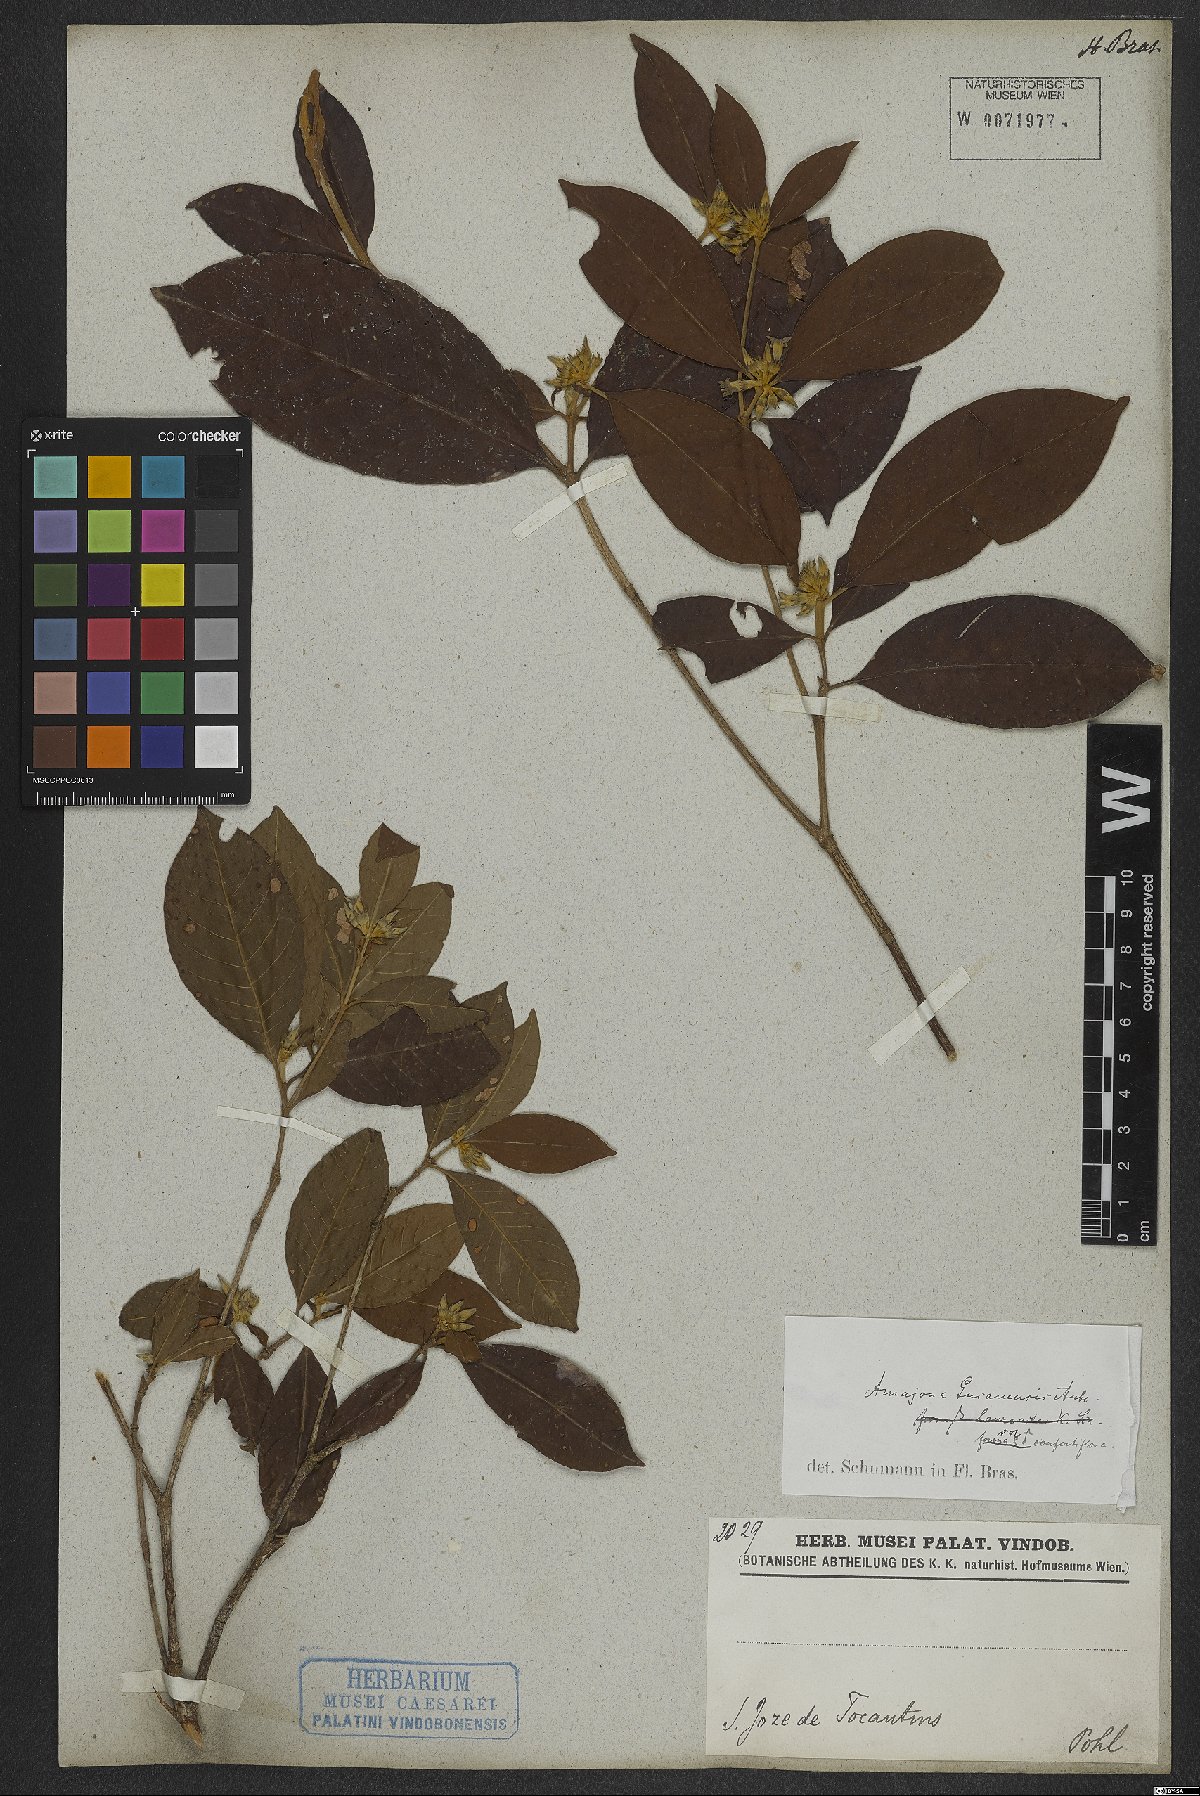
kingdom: Plantae
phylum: Tracheophyta
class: Magnoliopsida
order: Gentianales
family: Rubiaceae
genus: Amaioua
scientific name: Amaioua guianensis
